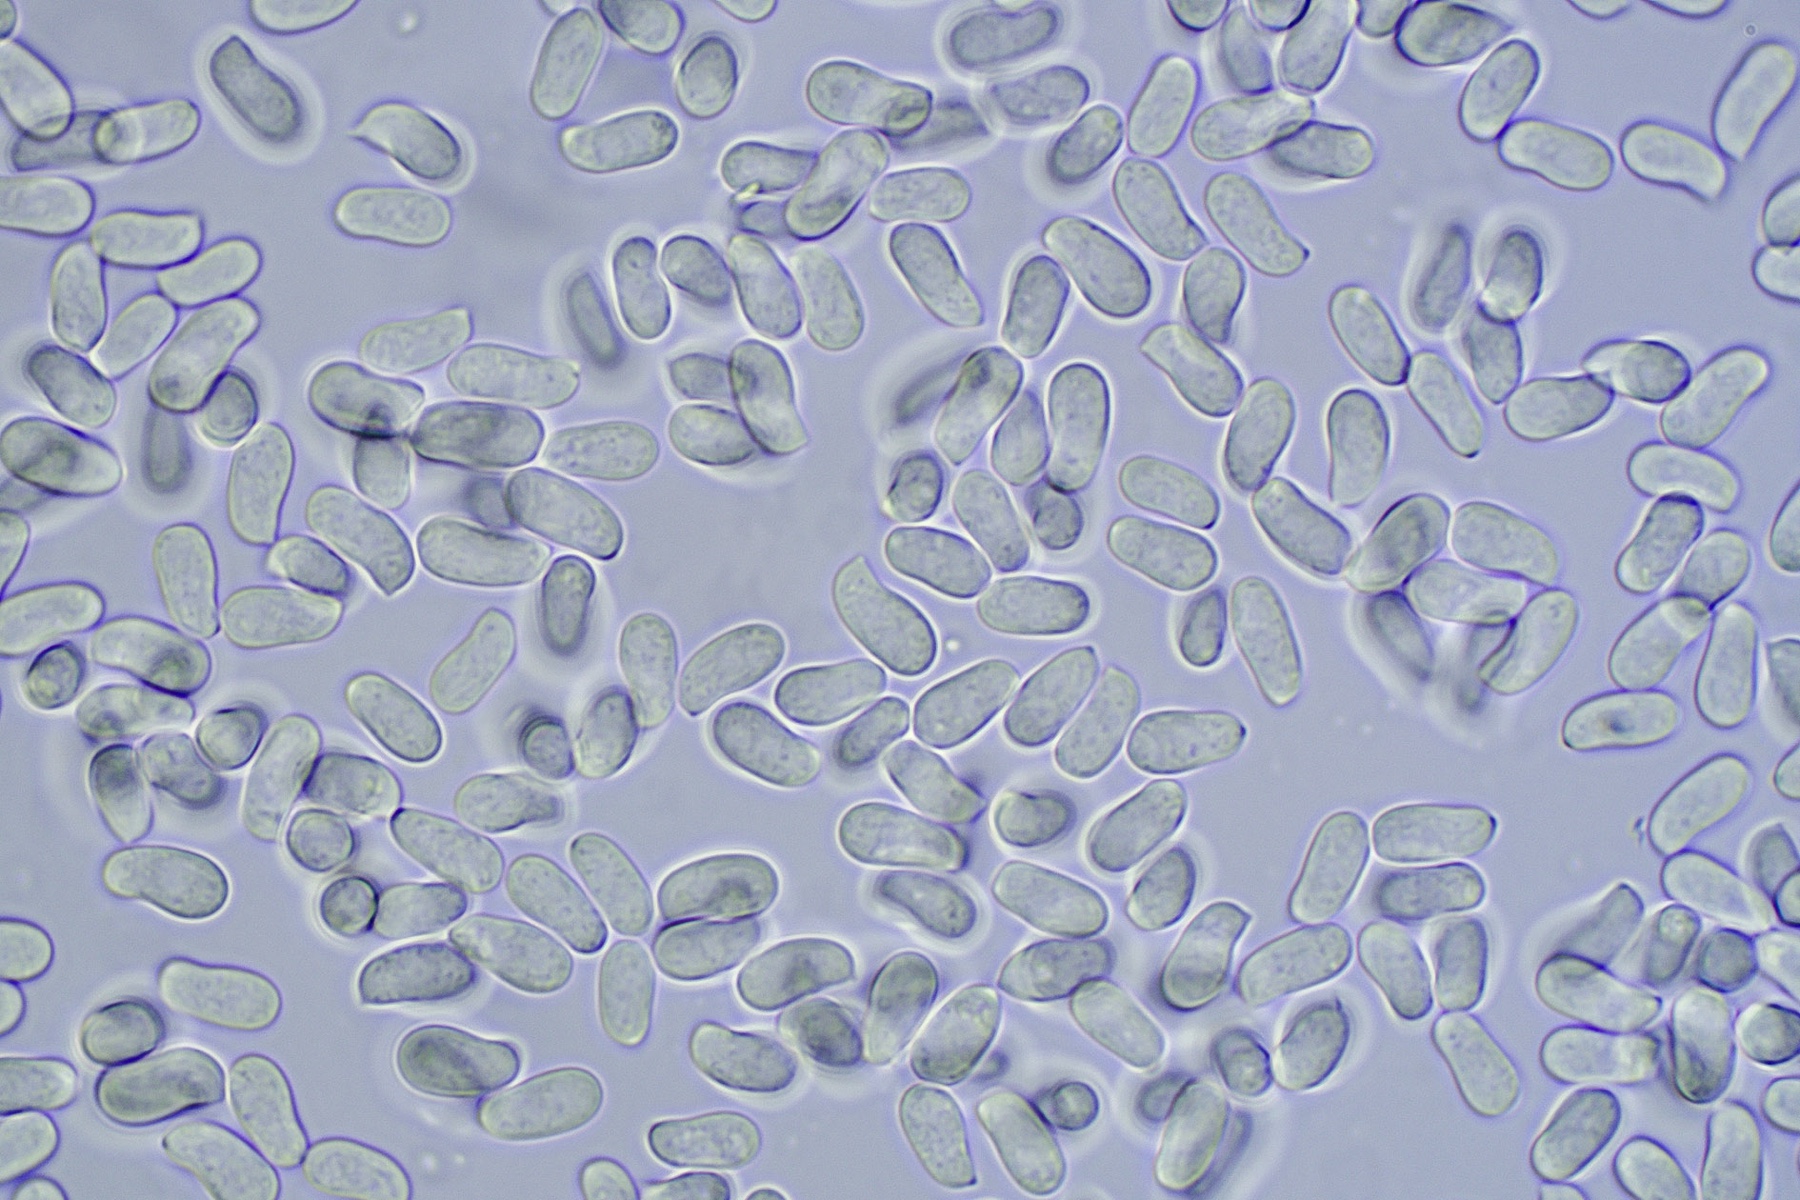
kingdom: Fungi
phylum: Basidiomycota
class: Agaricomycetes
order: Russulales
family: Peniophoraceae
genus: Peniophora
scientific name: Peniophora incarnata
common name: laksefarvet voksskind
